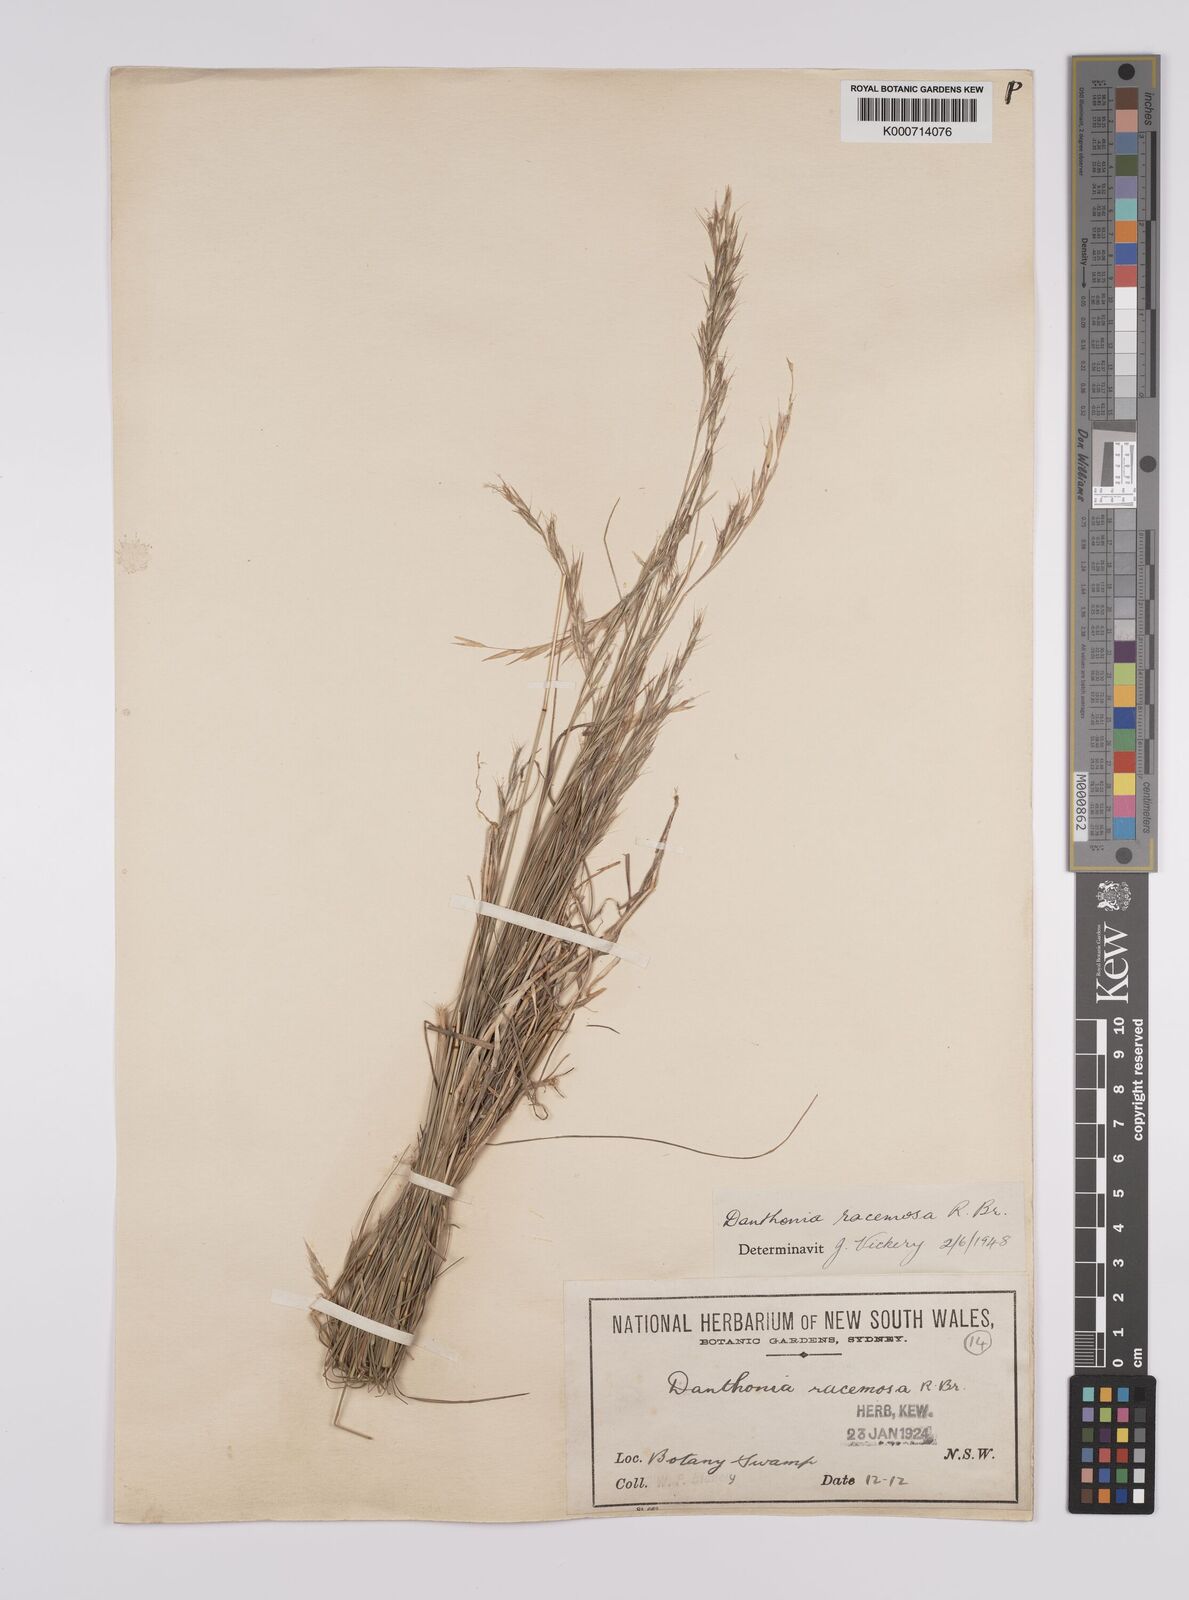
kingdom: Plantae
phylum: Tracheophyta
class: Liliopsida
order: Poales
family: Poaceae
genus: Rytidosperma
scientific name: Rytidosperma racemosum
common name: Wallaby-grass
